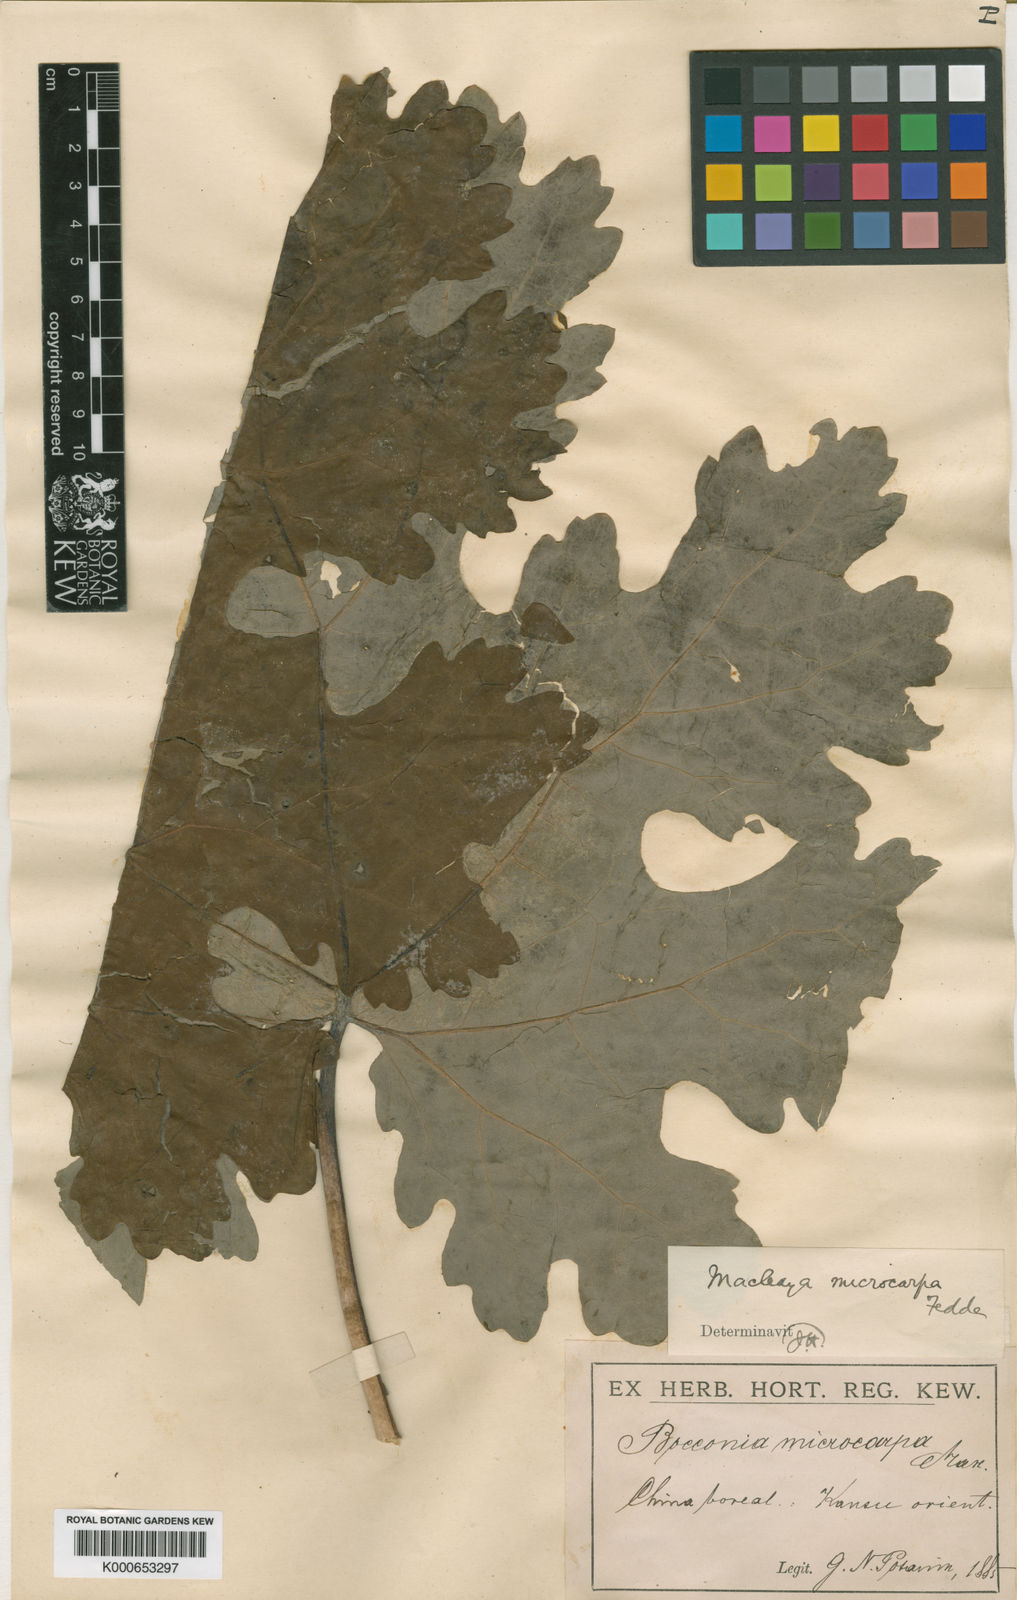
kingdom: Plantae
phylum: Tracheophyta
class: Magnoliopsida
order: Ranunculales
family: Papaveraceae
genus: Macleaya
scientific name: Macleaya microcarpa
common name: Plume-poppy
